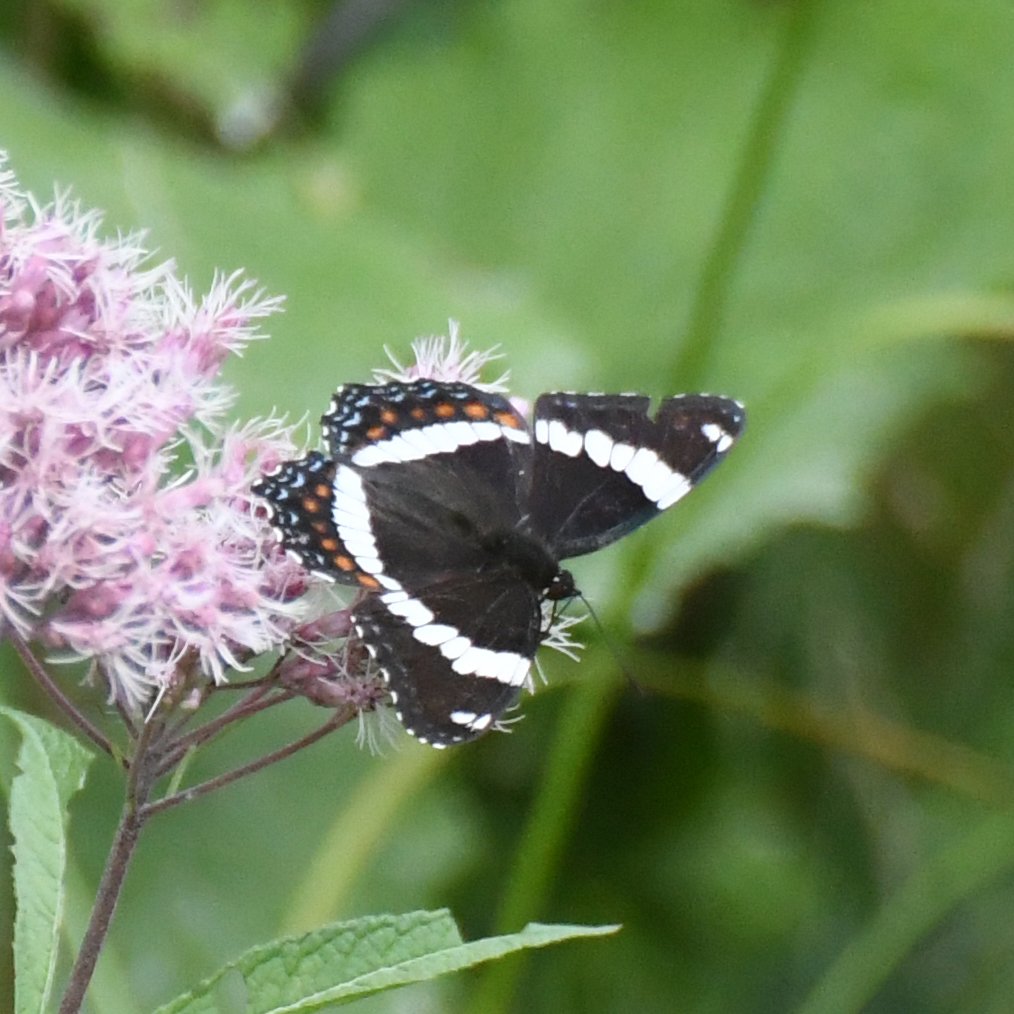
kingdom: Animalia
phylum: Arthropoda
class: Insecta
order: Lepidoptera
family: Nymphalidae
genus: Limenitis
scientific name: Limenitis arthemis
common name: Red-spotted Admiral
